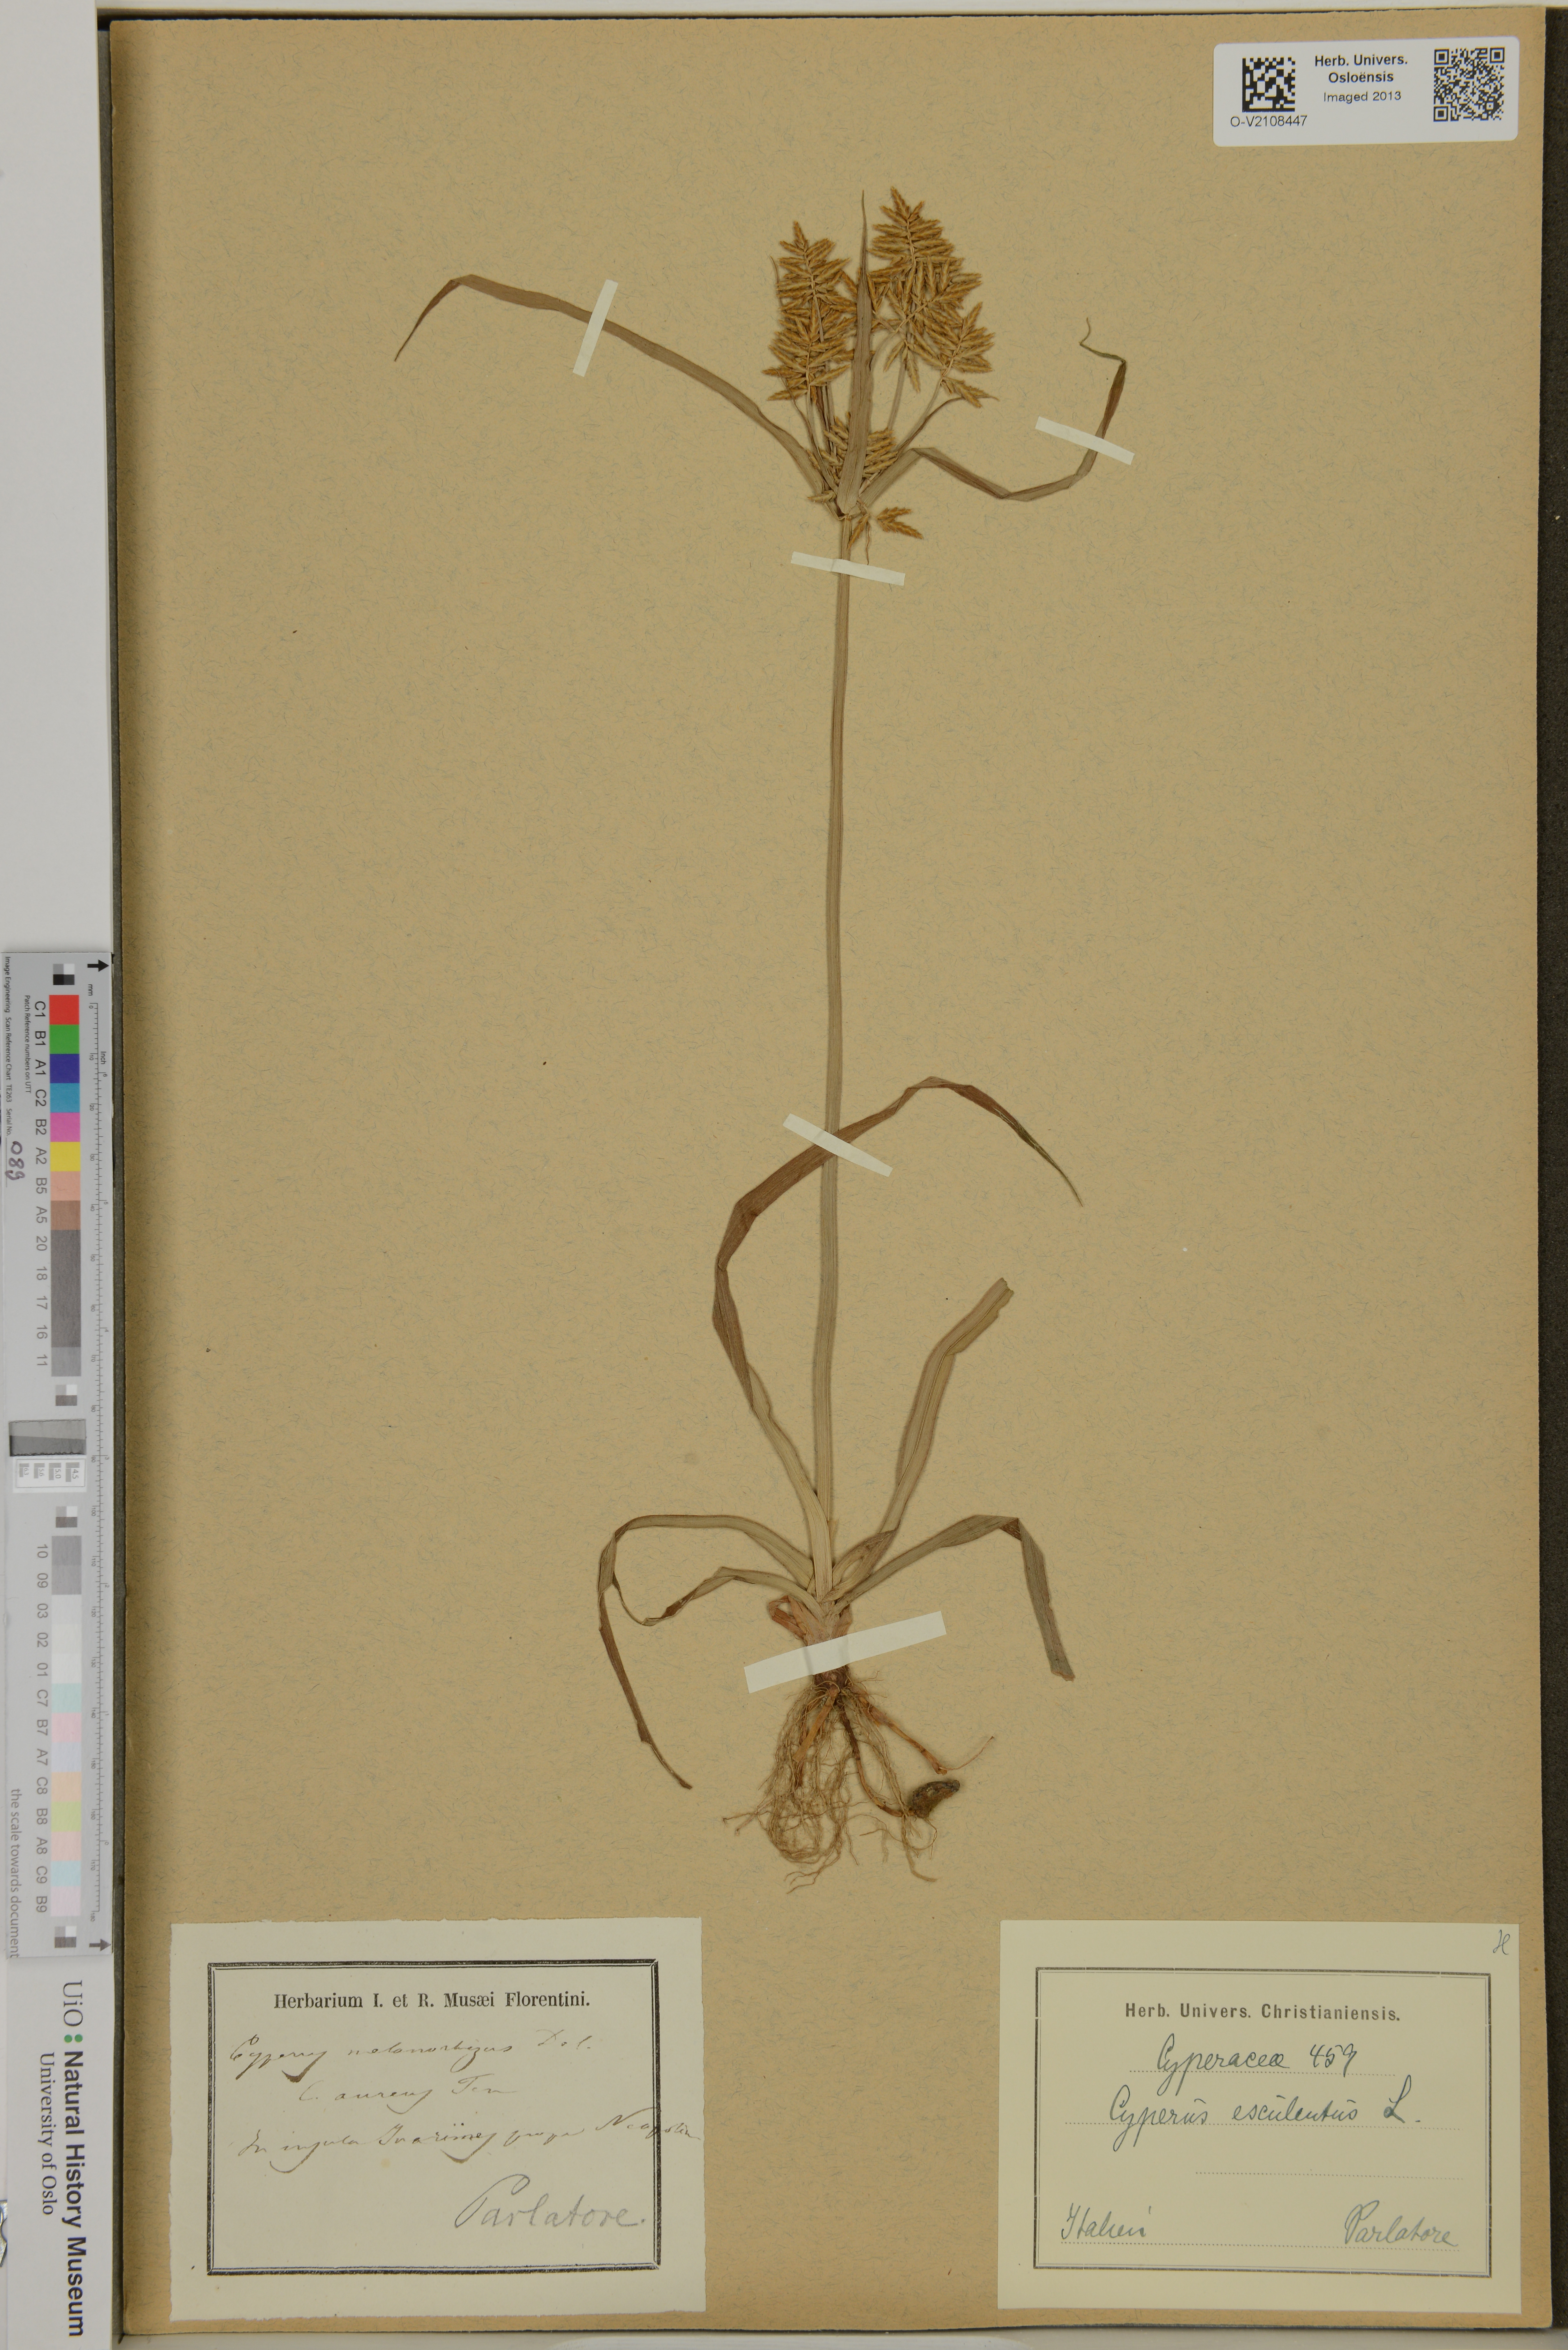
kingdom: Plantae
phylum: Tracheophyta
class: Liliopsida
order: Poales
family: Cyperaceae
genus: Cyperus
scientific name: Cyperus esculentus
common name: Yellow nutsedge
